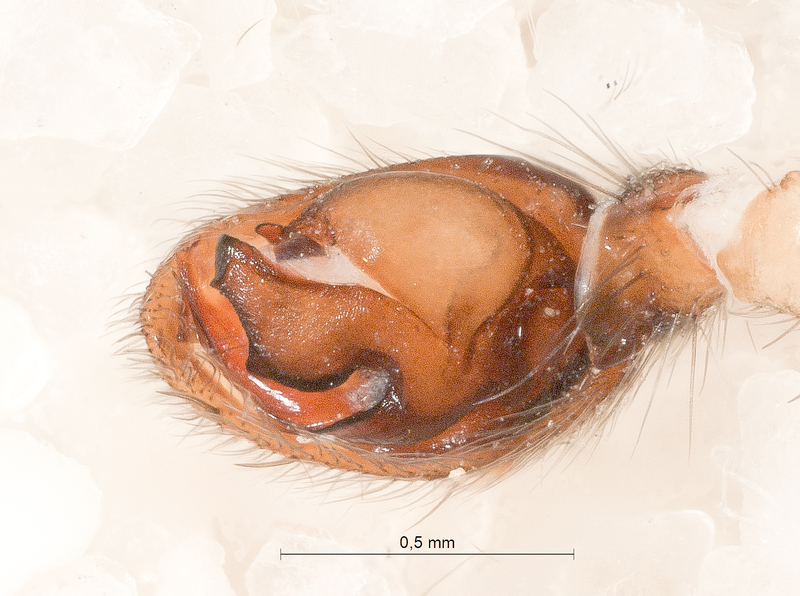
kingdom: Animalia
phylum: Arthropoda
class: Arachnida
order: Araneae
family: Gnaphosidae
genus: Haplodrassus
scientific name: Haplodrassus dalmatensis
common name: Heath grasper
